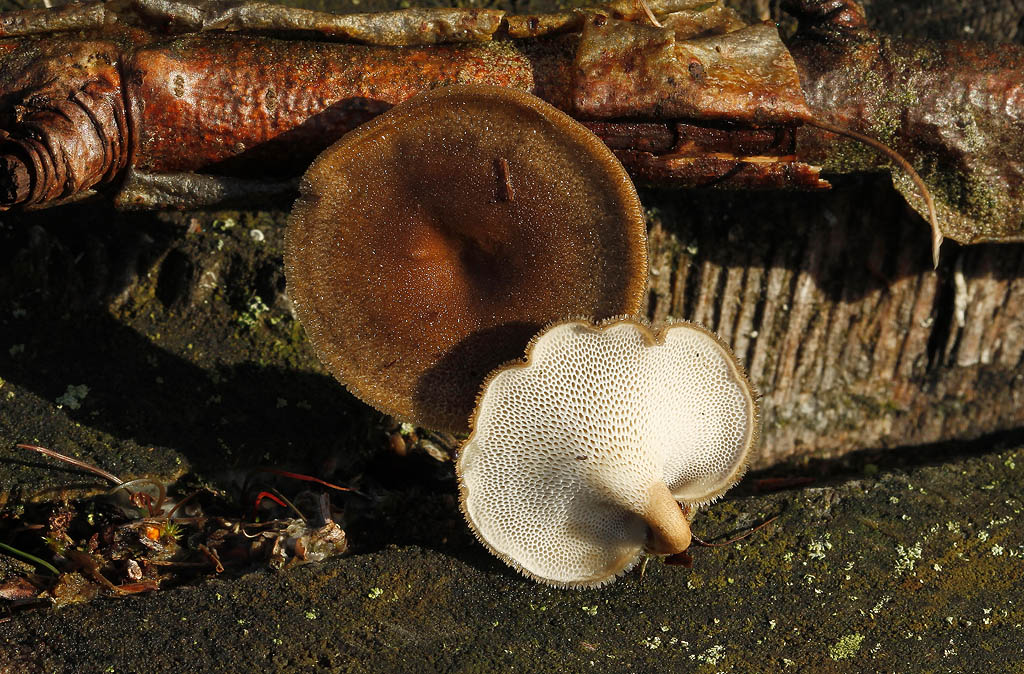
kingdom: Fungi
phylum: Basidiomycota
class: Agaricomycetes
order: Polyporales
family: Polyporaceae
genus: Lentinus
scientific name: Lentinus brumalis
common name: vinter-stilkporesvamp
